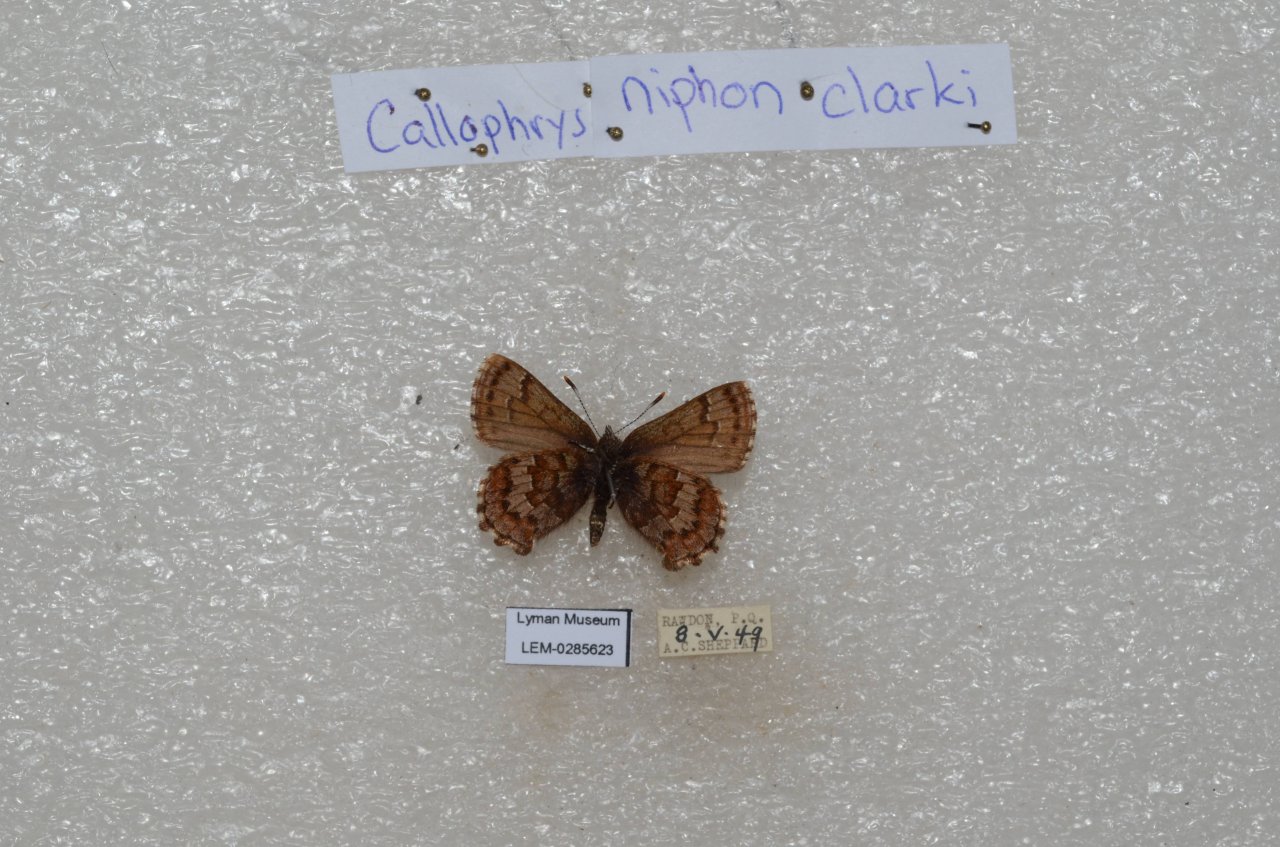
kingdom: Animalia
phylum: Arthropoda
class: Insecta
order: Lepidoptera
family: Lycaenidae
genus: Incisalia
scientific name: Incisalia niphon
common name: Eastern Pine Elfin
